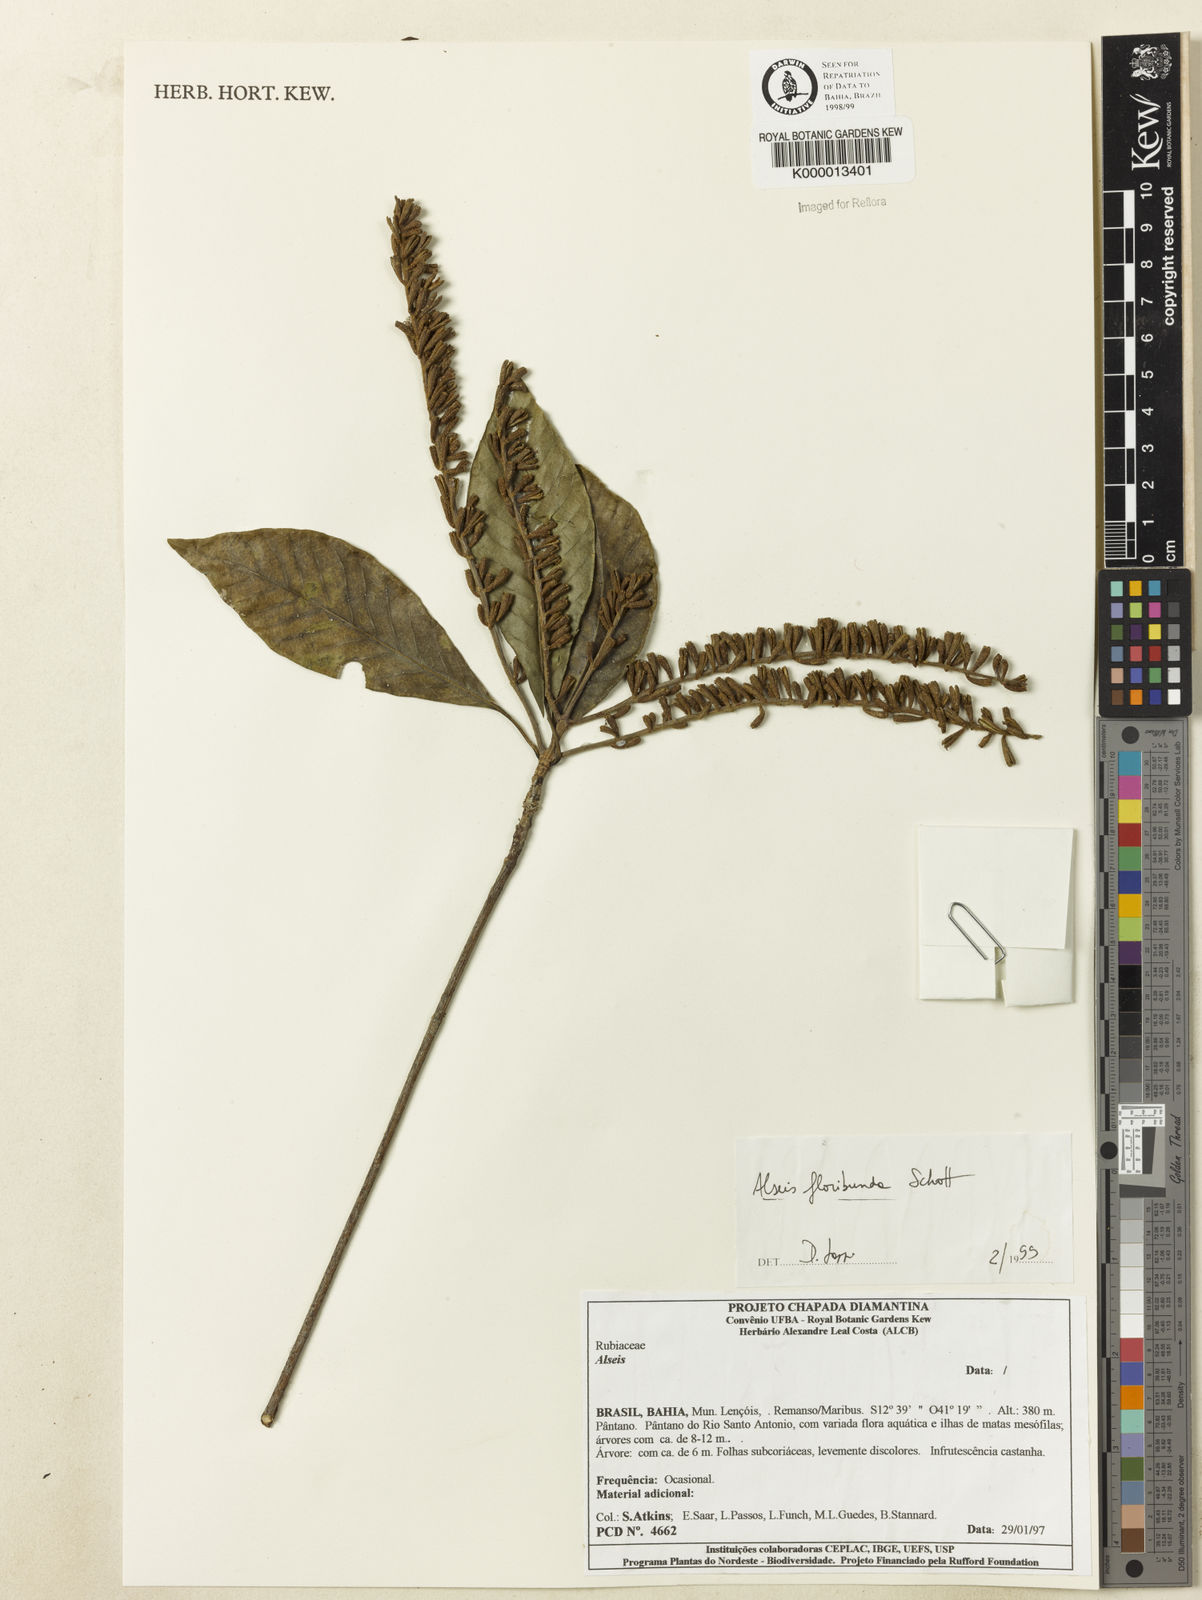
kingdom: Plantae
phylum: Tracheophyta
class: Magnoliopsida
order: Gentianales
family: Rubiaceae
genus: Alseis
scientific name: Alseis floribunda
